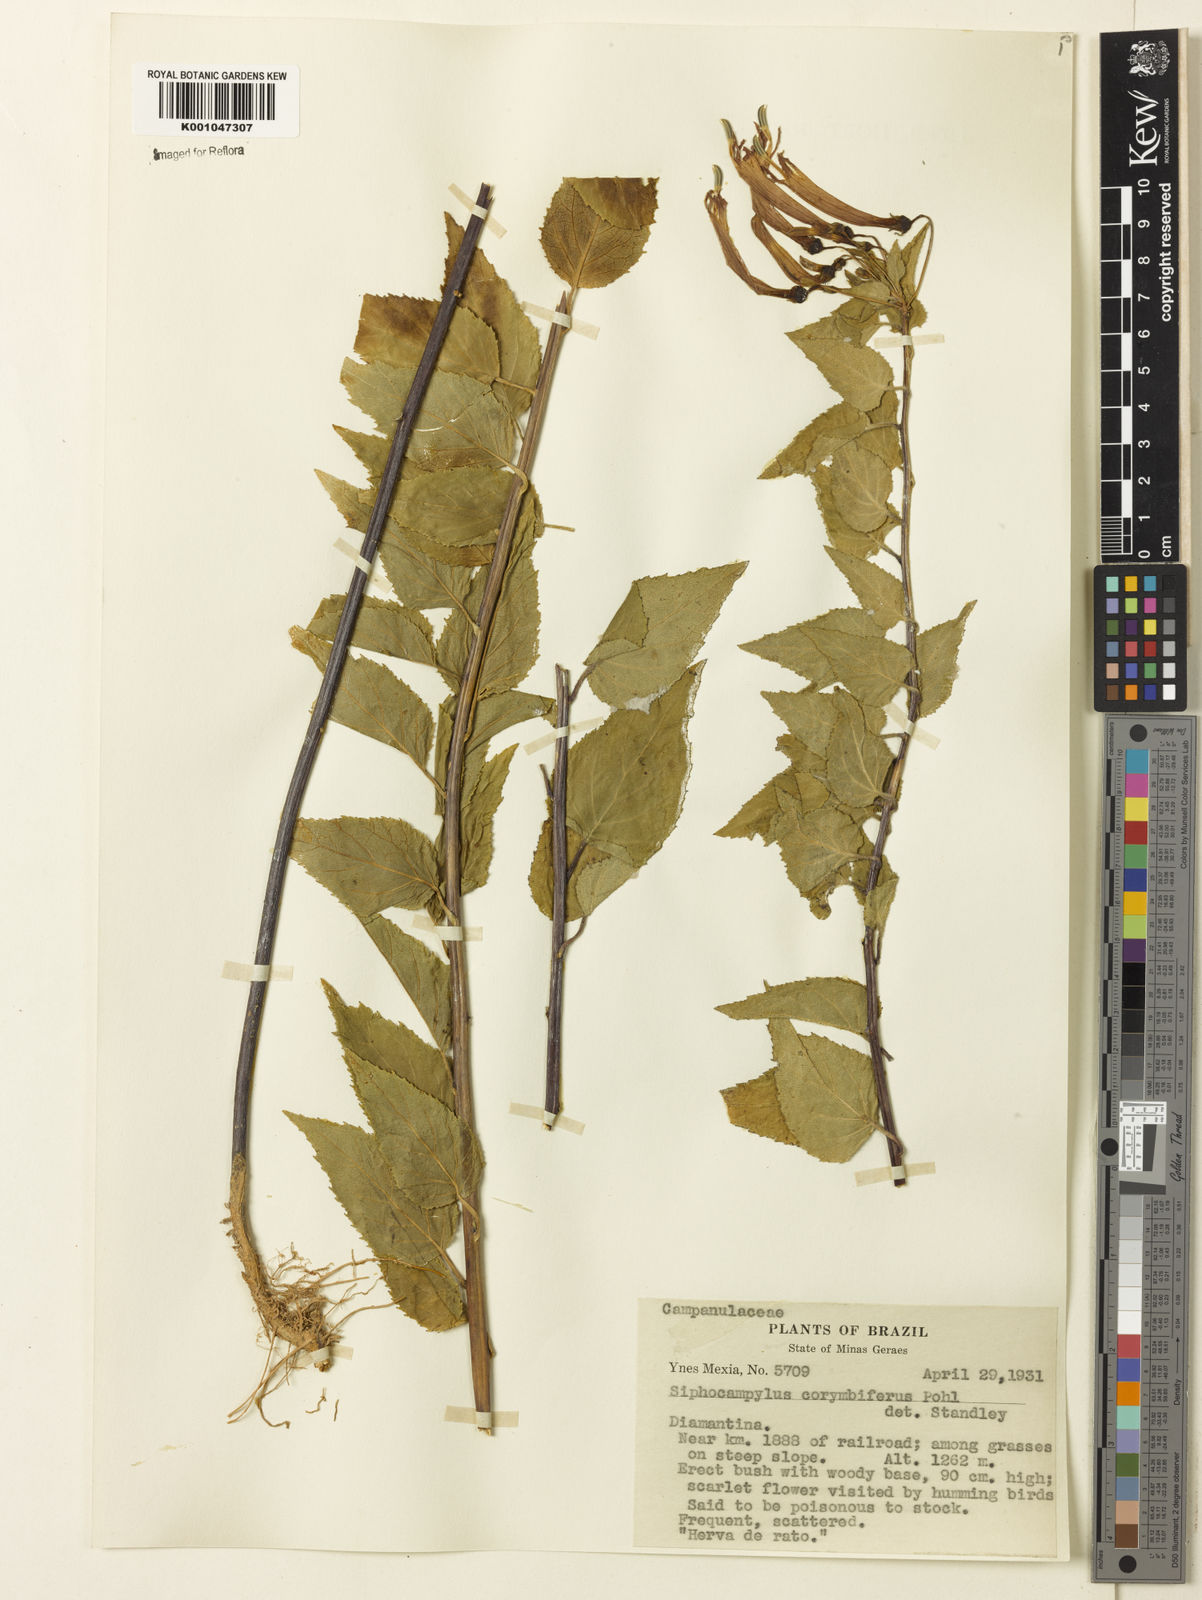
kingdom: Plantae
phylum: Tracheophyta
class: Magnoliopsida
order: Asterales
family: Campanulaceae
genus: Siphocampylus
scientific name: Siphocampylus corymbifer
